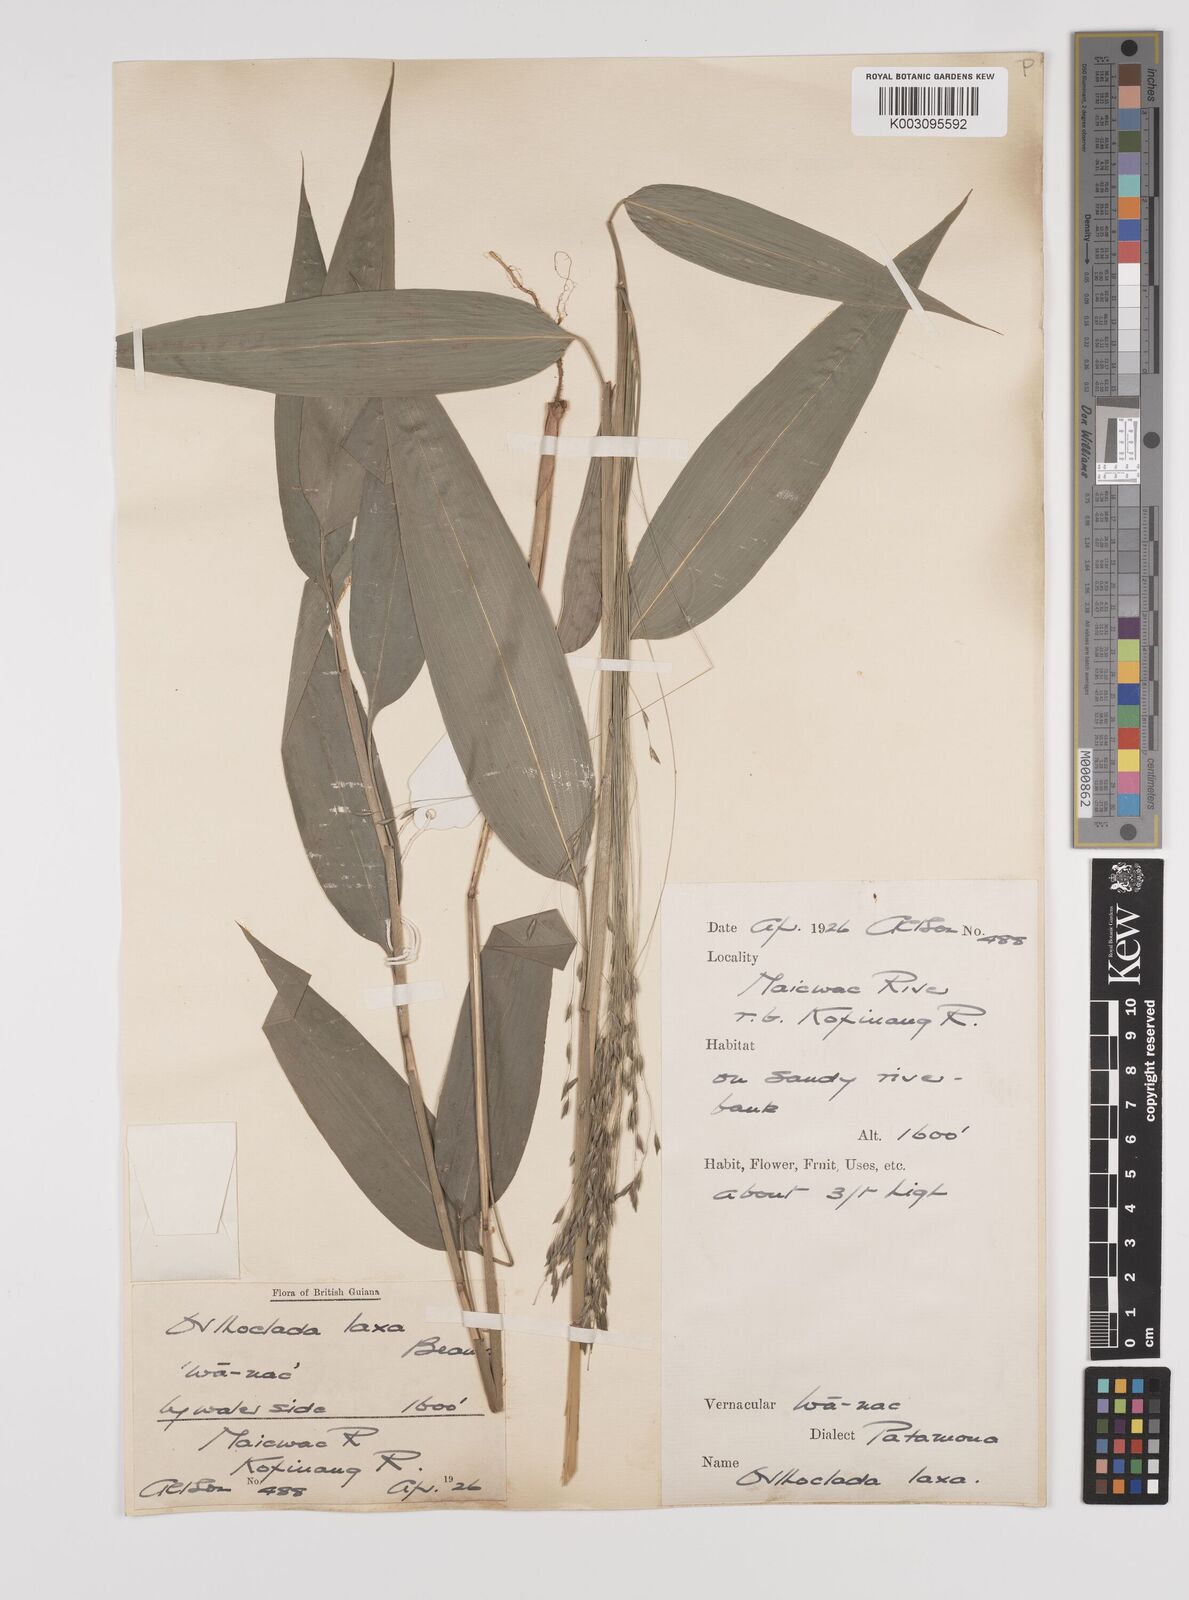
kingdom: Plantae
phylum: Tracheophyta
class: Liliopsida
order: Poales
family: Poaceae
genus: Orthoclada
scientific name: Orthoclada laxa
